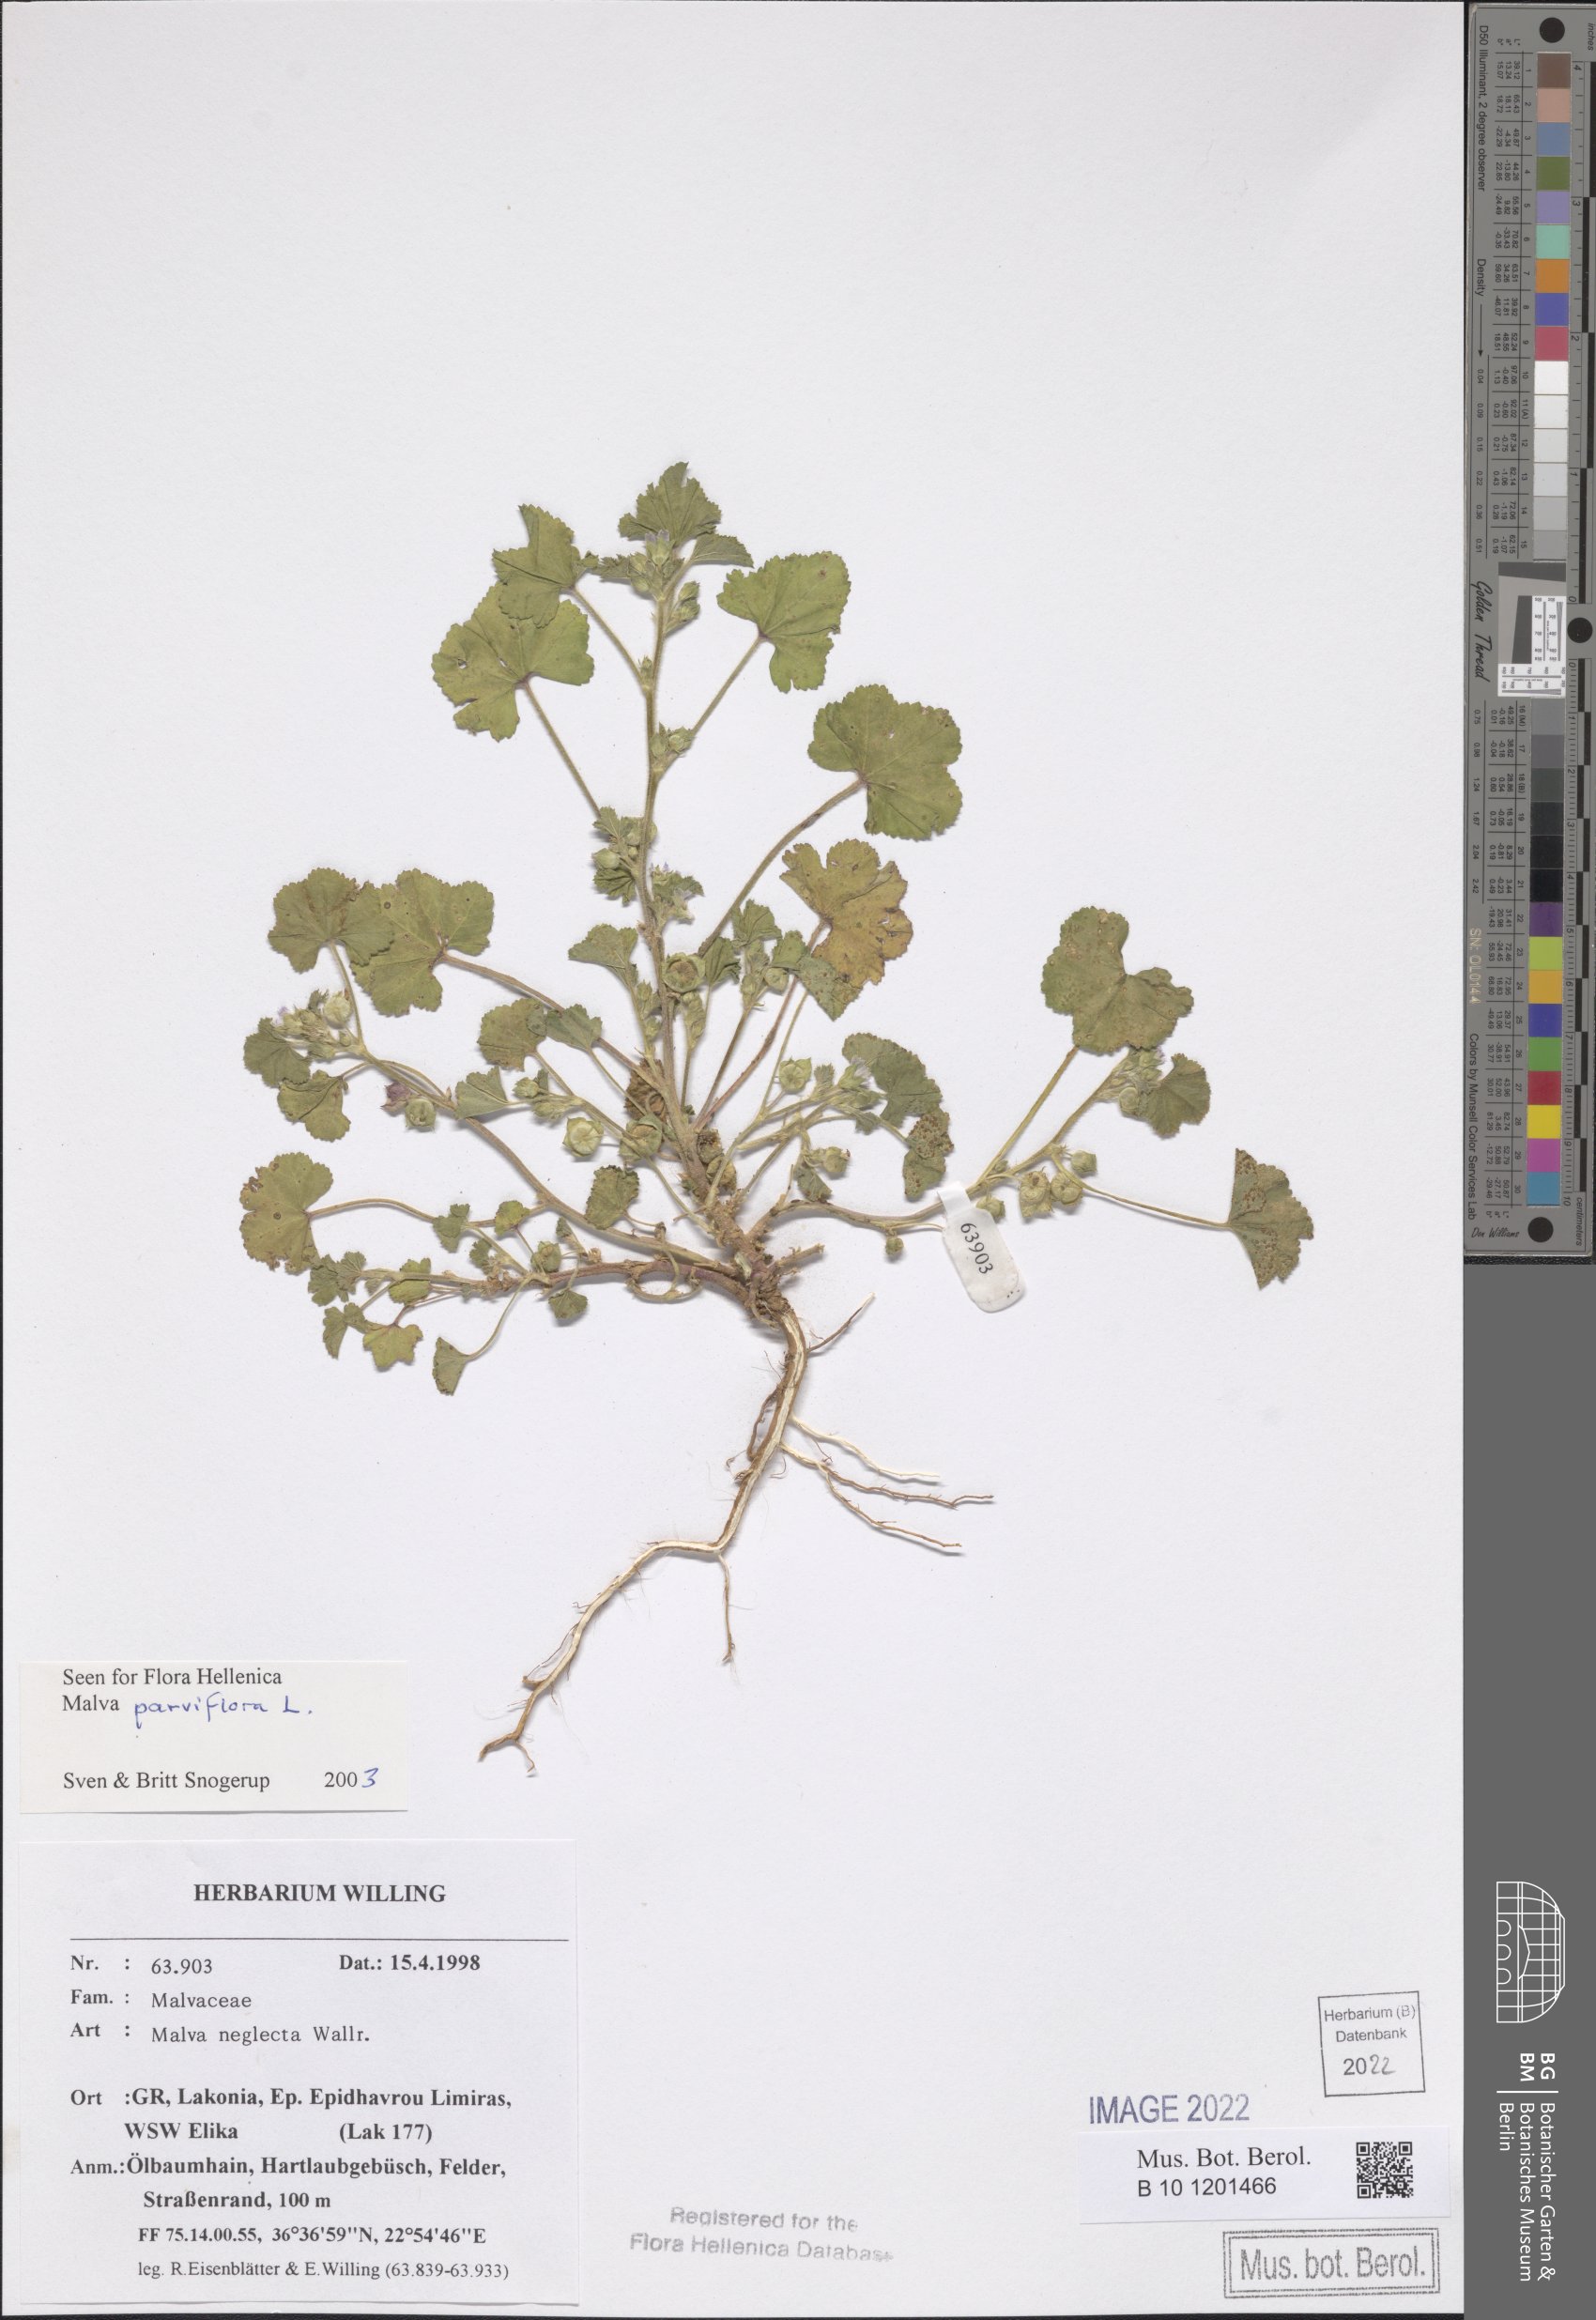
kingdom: Plantae
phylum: Tracheophyta
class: Magnoliopsida
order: Malvales
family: Malvaceae
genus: Malva
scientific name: Malva parviflora
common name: Least mallow
